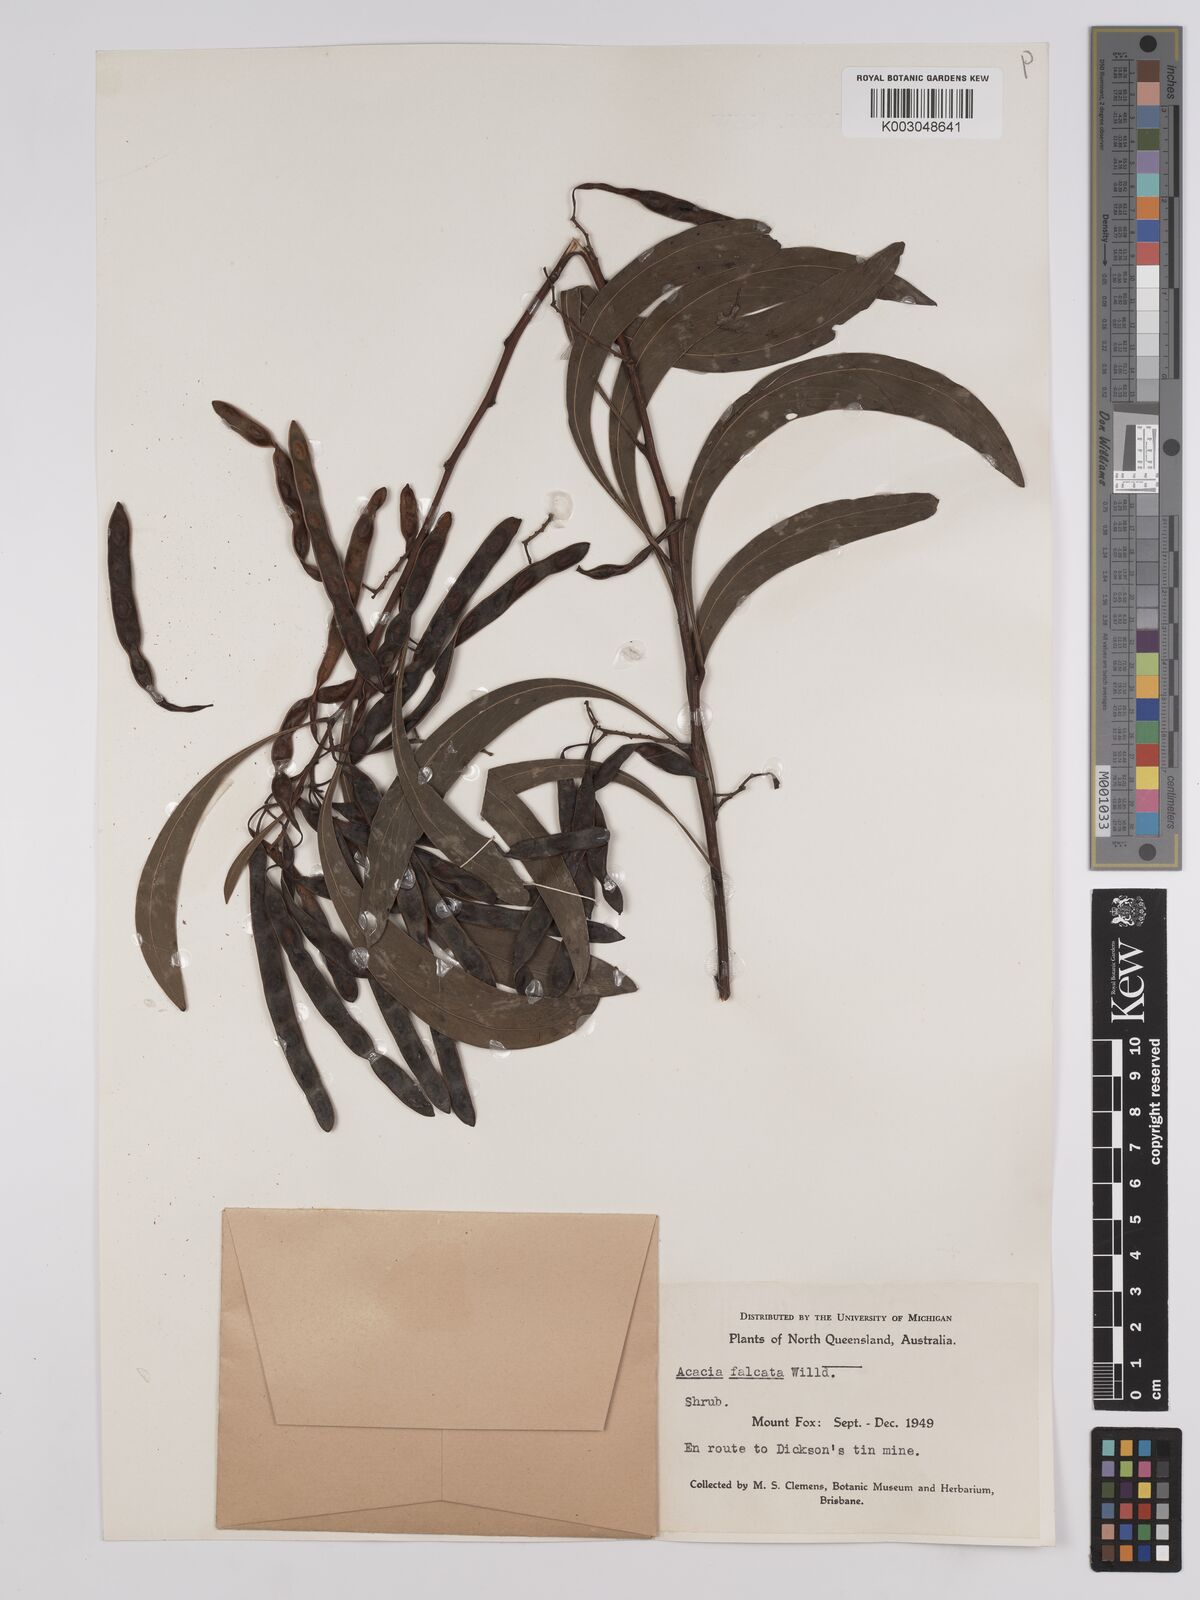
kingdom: Plantae
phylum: Tracheophyta
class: Magnoliopsida
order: Fabales
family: Fabaceae
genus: Acacia
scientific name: Acacia falcata
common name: Burra acacia
